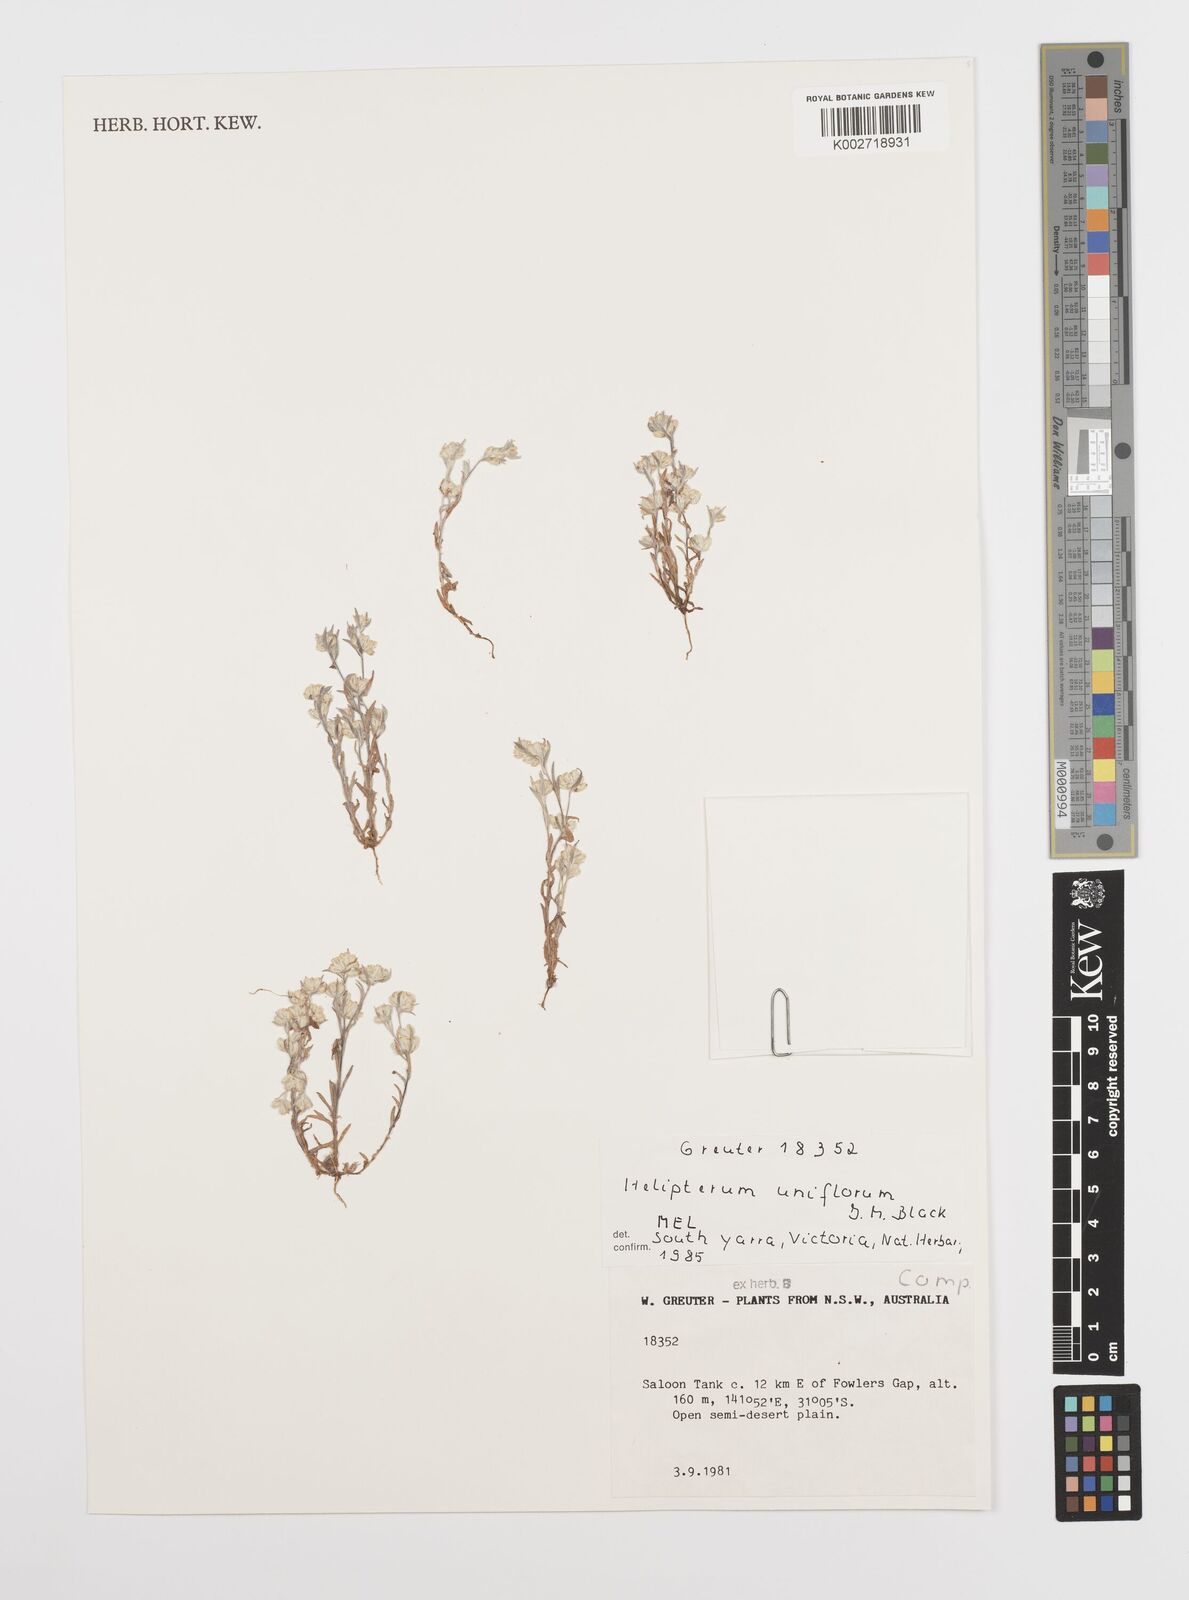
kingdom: Plantae
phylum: Tracheophyta
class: Magnoliopsida
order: Asterales
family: Asteraceae
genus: Rhodanthe
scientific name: Rhodanthe uniflora
